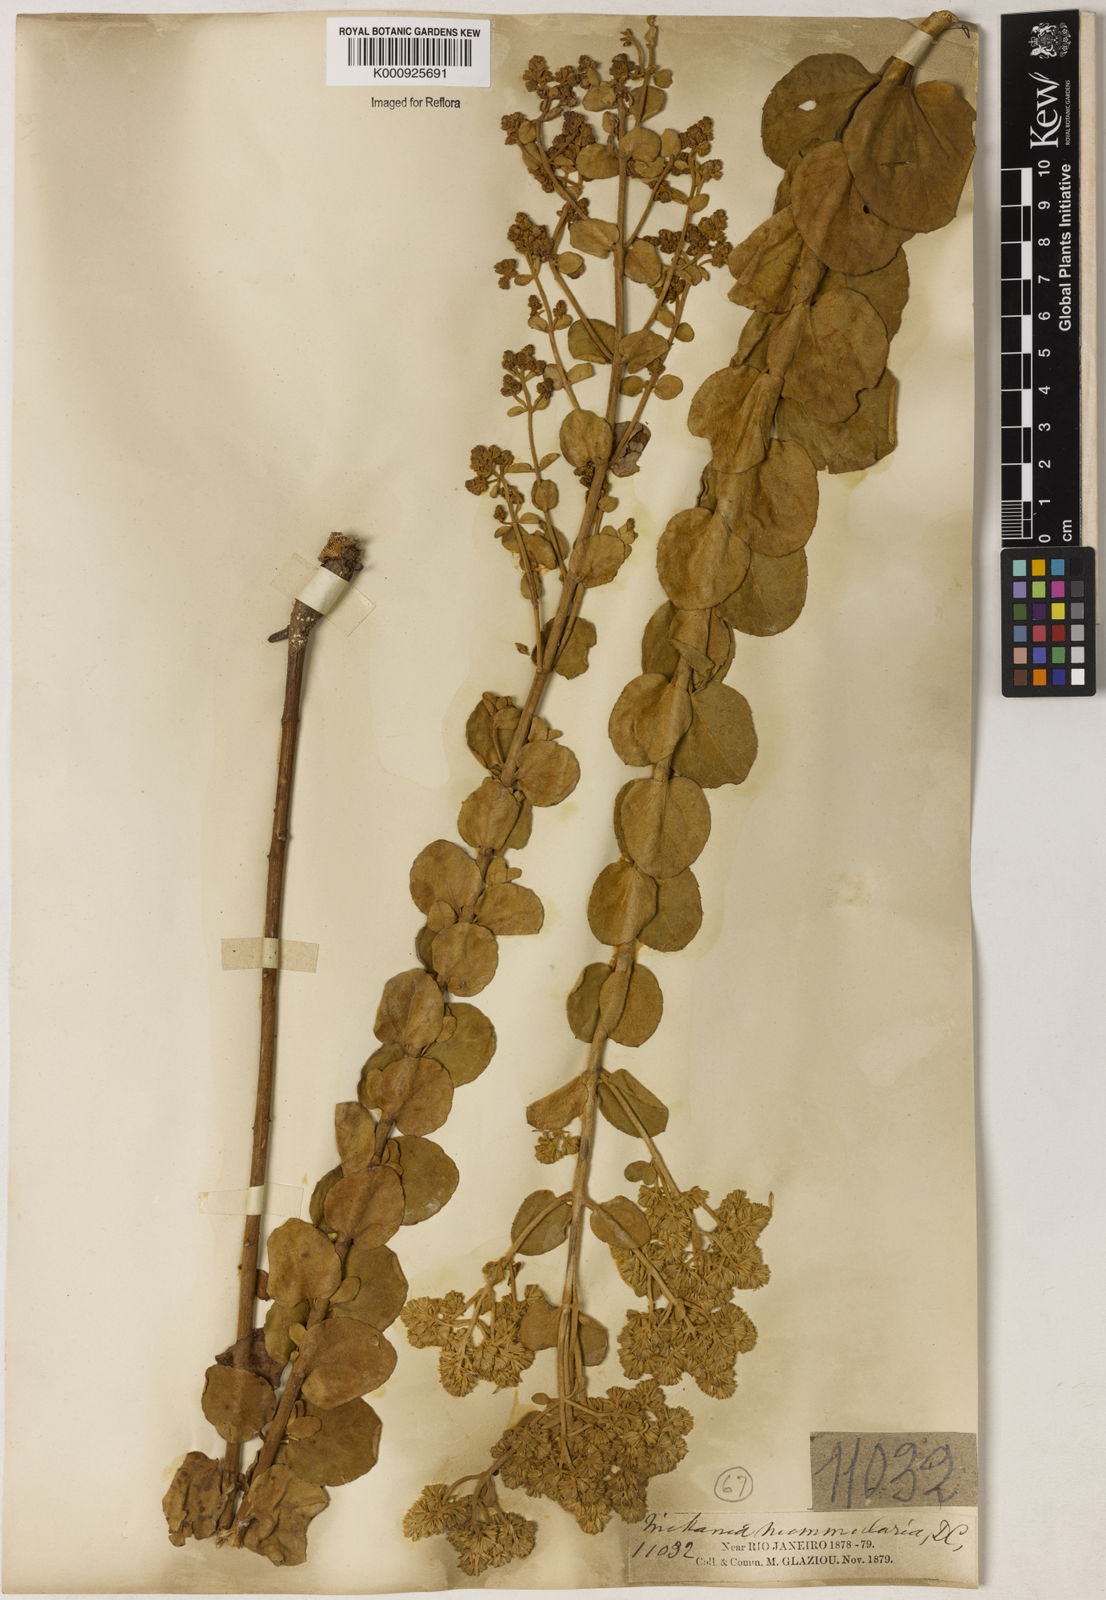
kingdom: Plantae
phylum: Tracheophyta
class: Magnoliopsida
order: Asterales
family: Asteraceae
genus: Mikania
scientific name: Mikania nummularia
